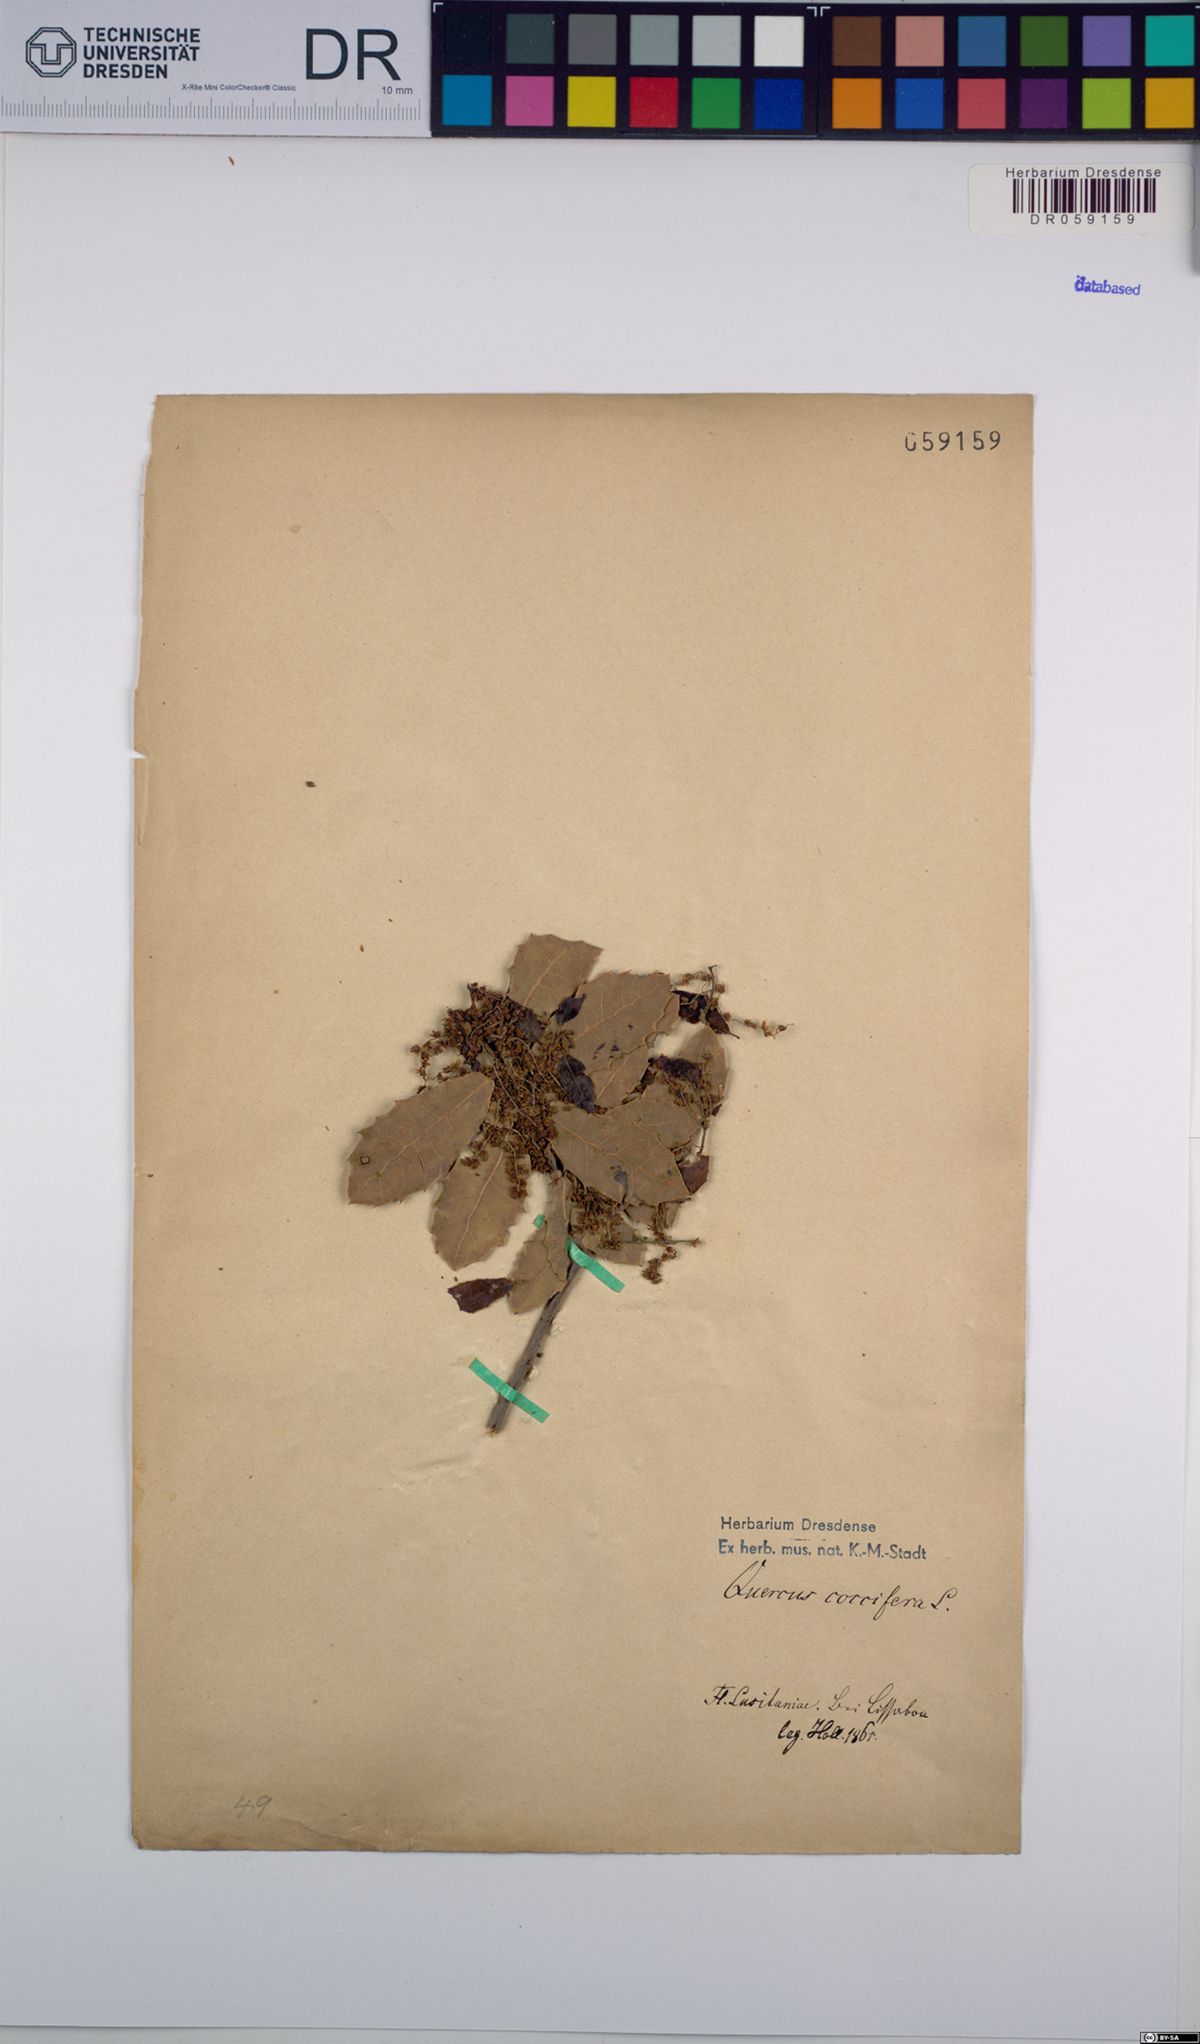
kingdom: Plantae
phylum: Tracheophyta
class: Magnoliopsida
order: Fagales
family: Fagaceae
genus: Quercus
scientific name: Quercus coccifera
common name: Kermes oak
